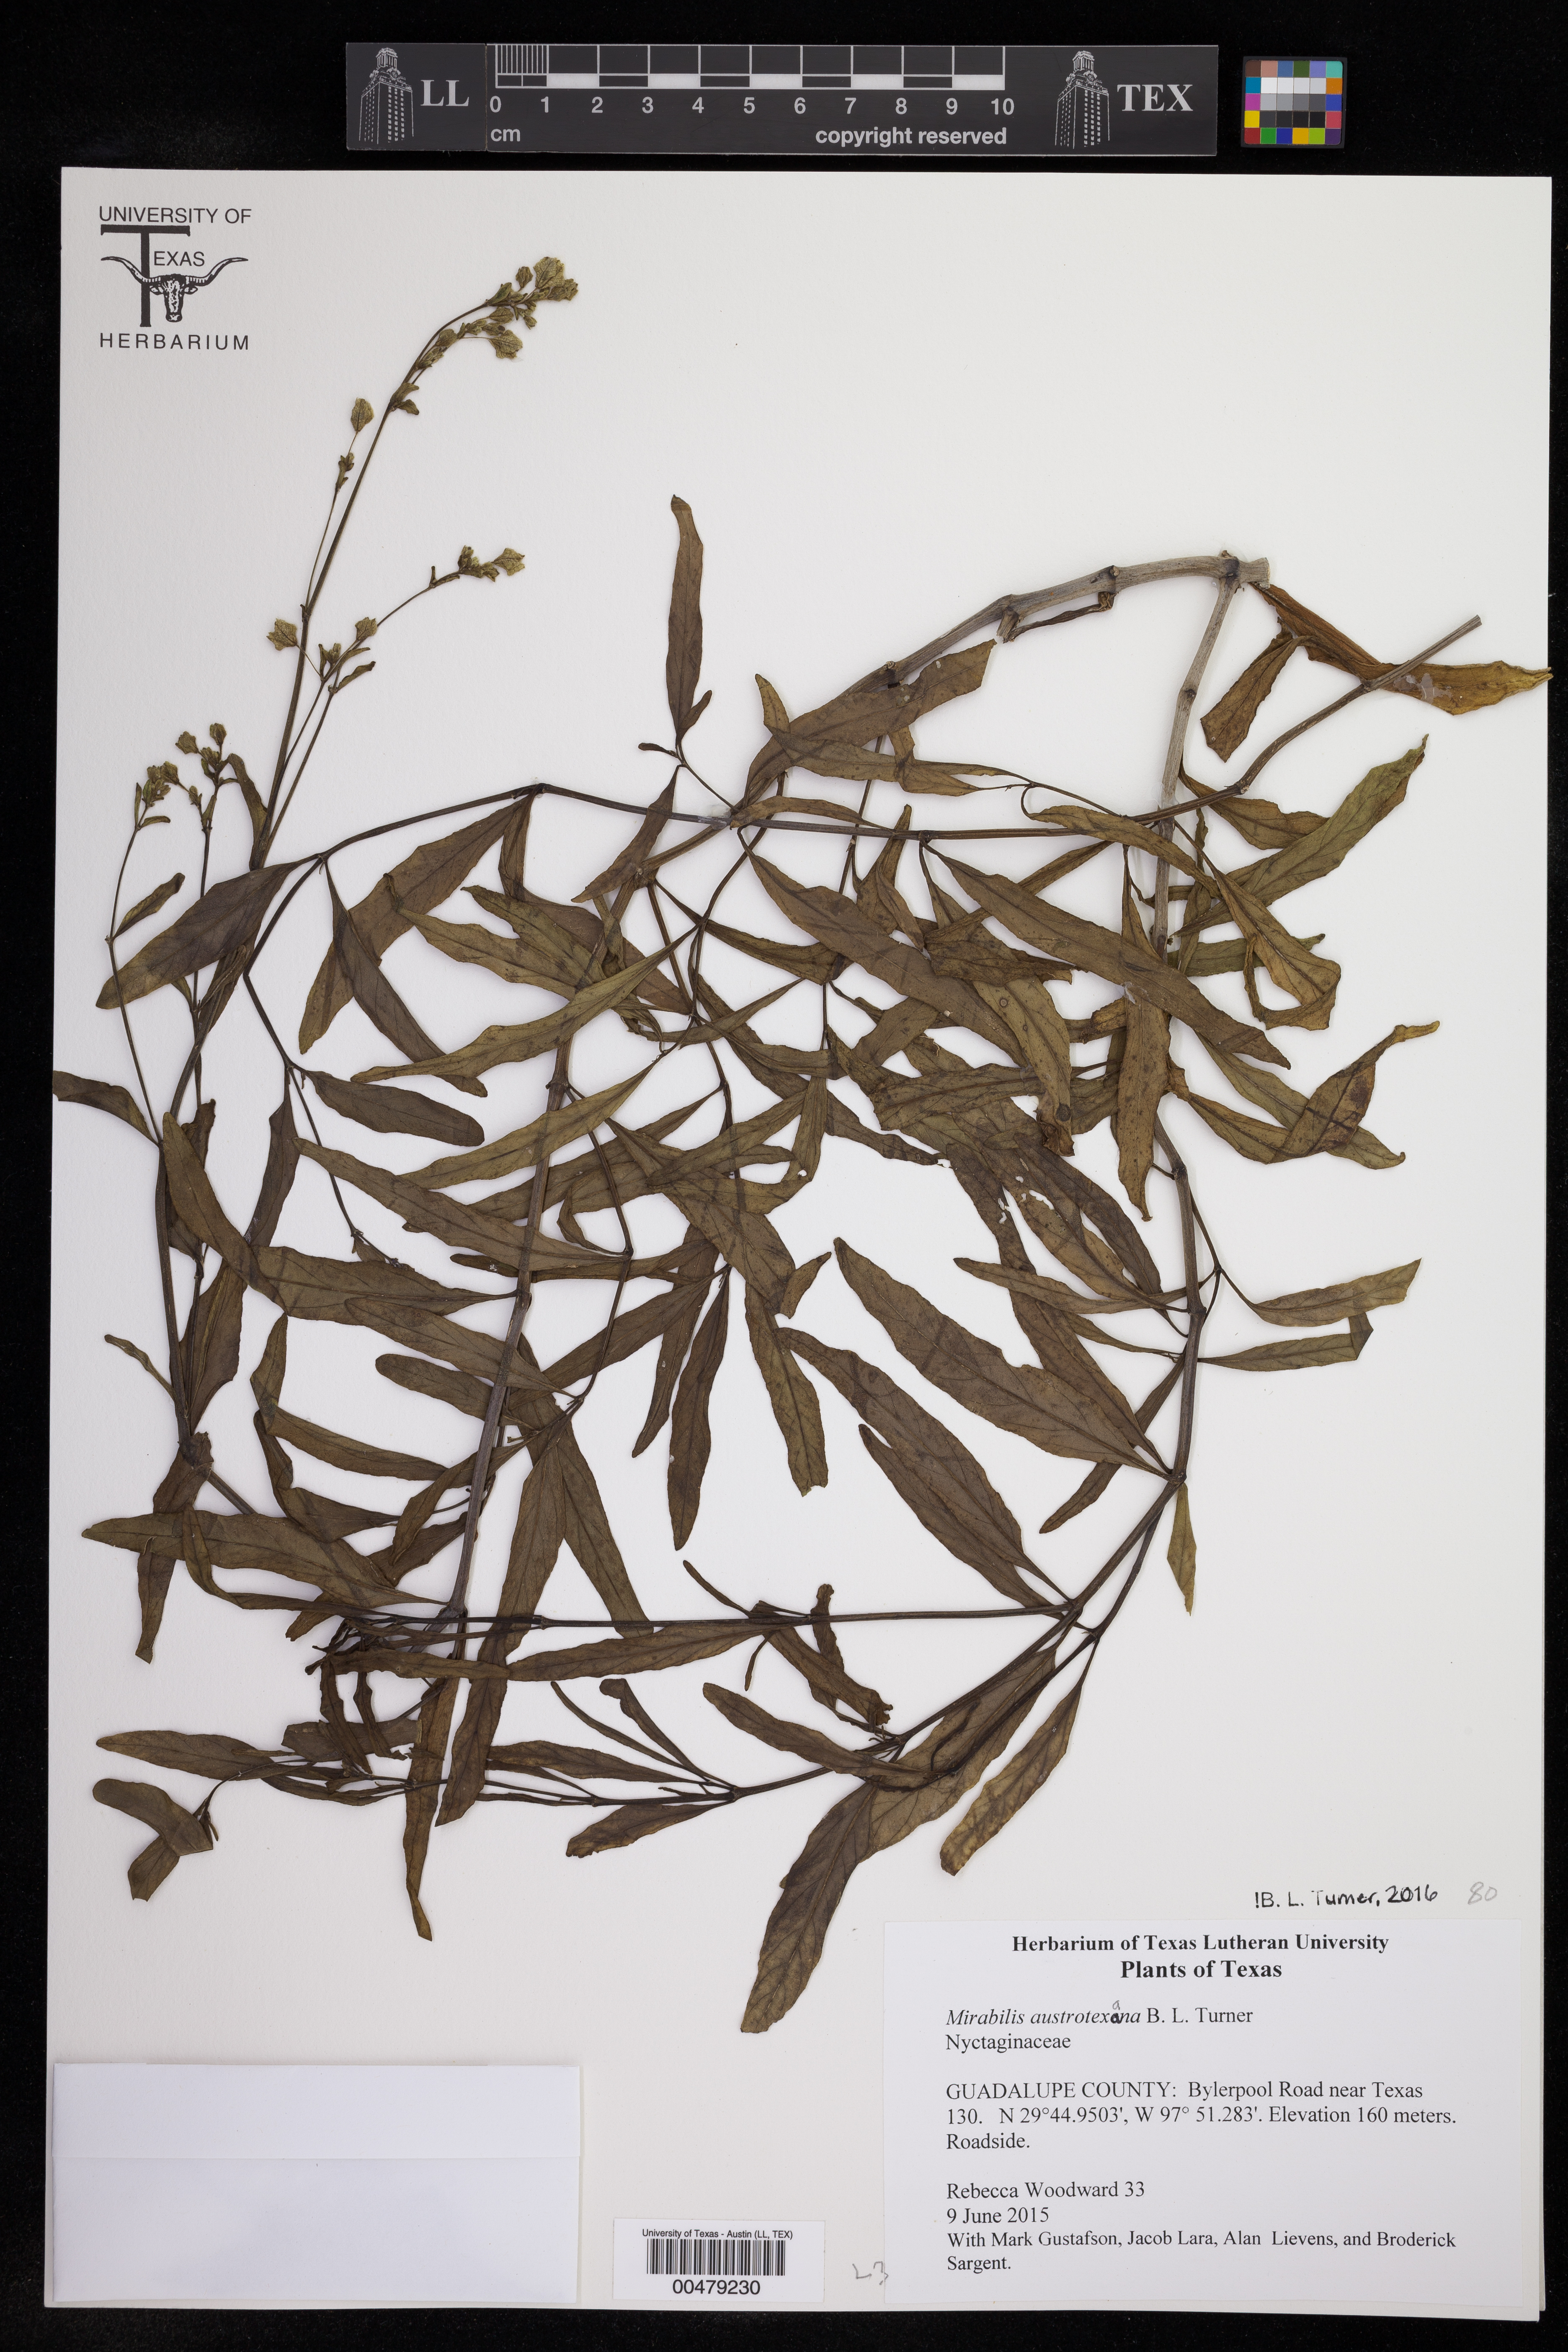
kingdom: Plantae
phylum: Tracheophyta
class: Magnoliopsida
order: Caryophyllales
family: Nyctaginaceae
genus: Mirabilis
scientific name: Mirabilis austrotexana
